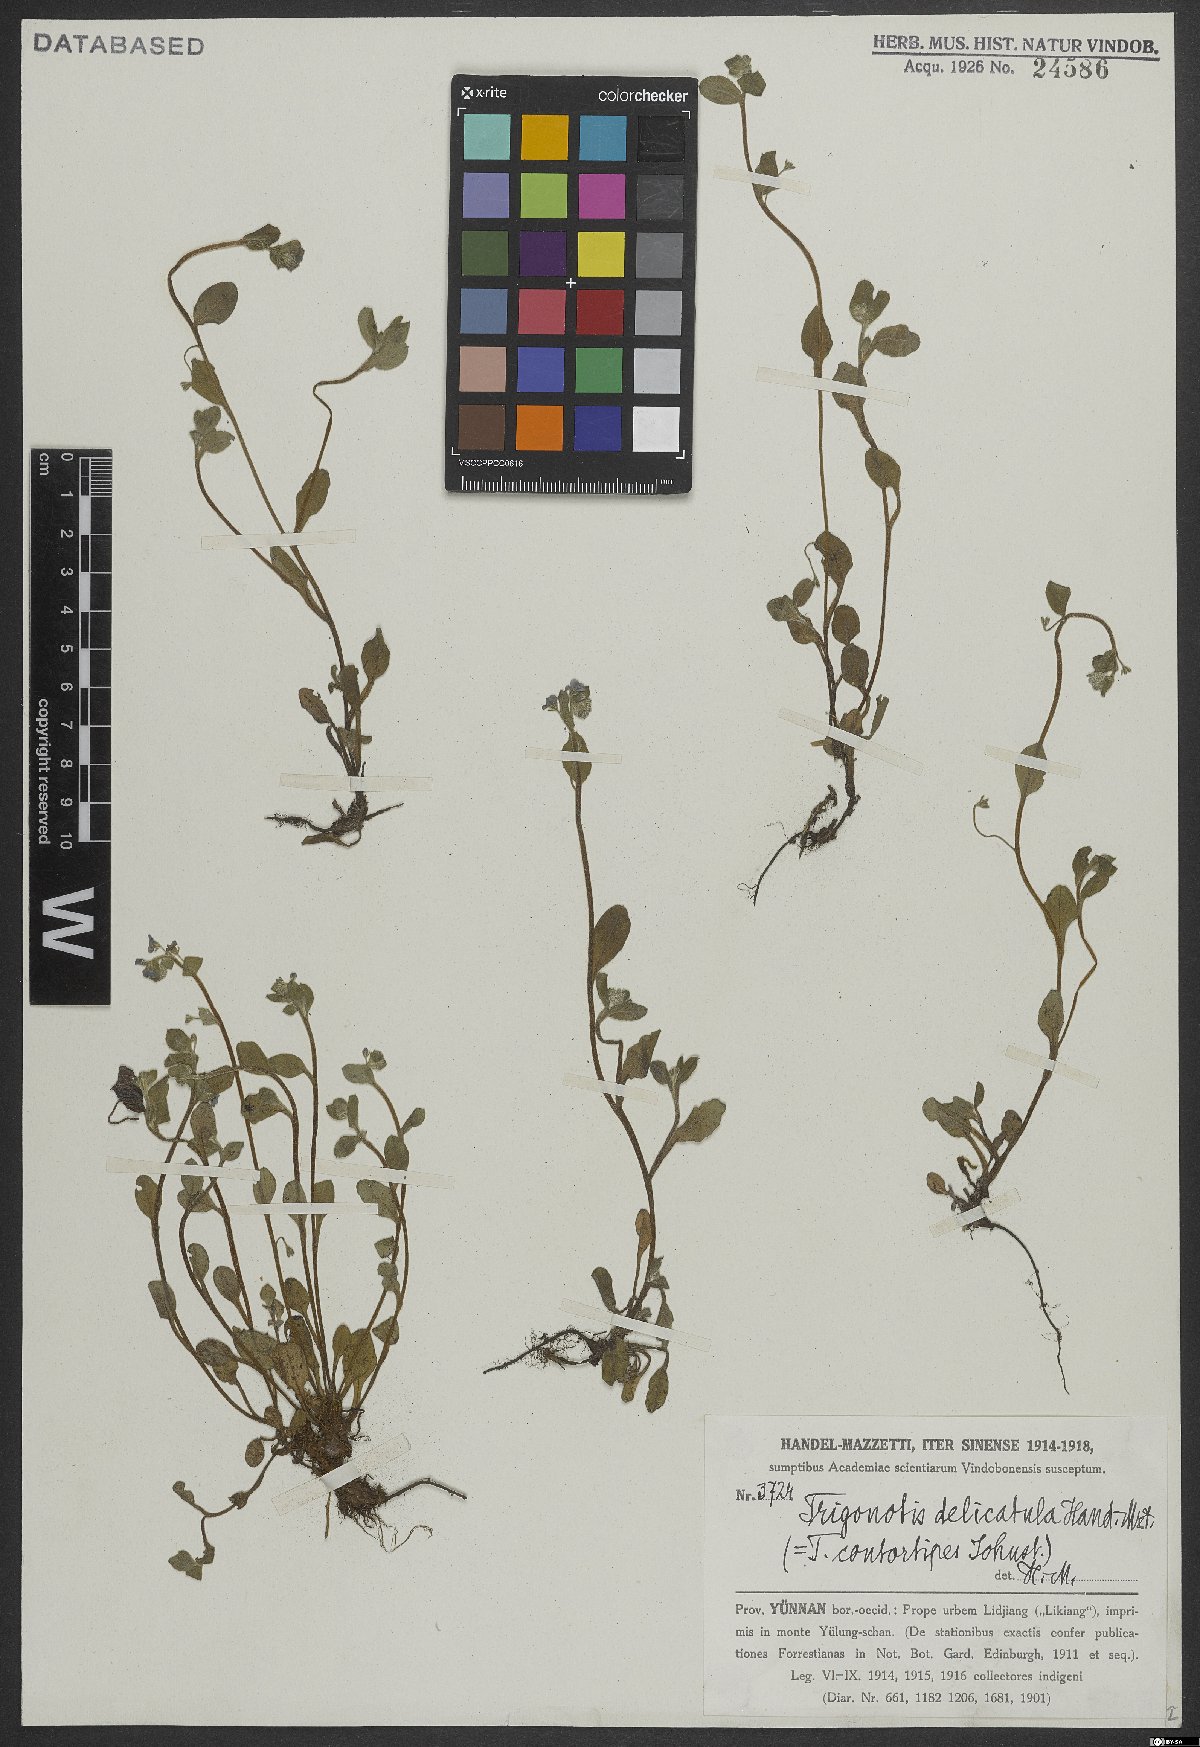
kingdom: Plantae
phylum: Tracheophyta
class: Magnoliopsida
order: Boraginales
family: Boraginaceae
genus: Trigonotis
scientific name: Trigonotis delicatula
